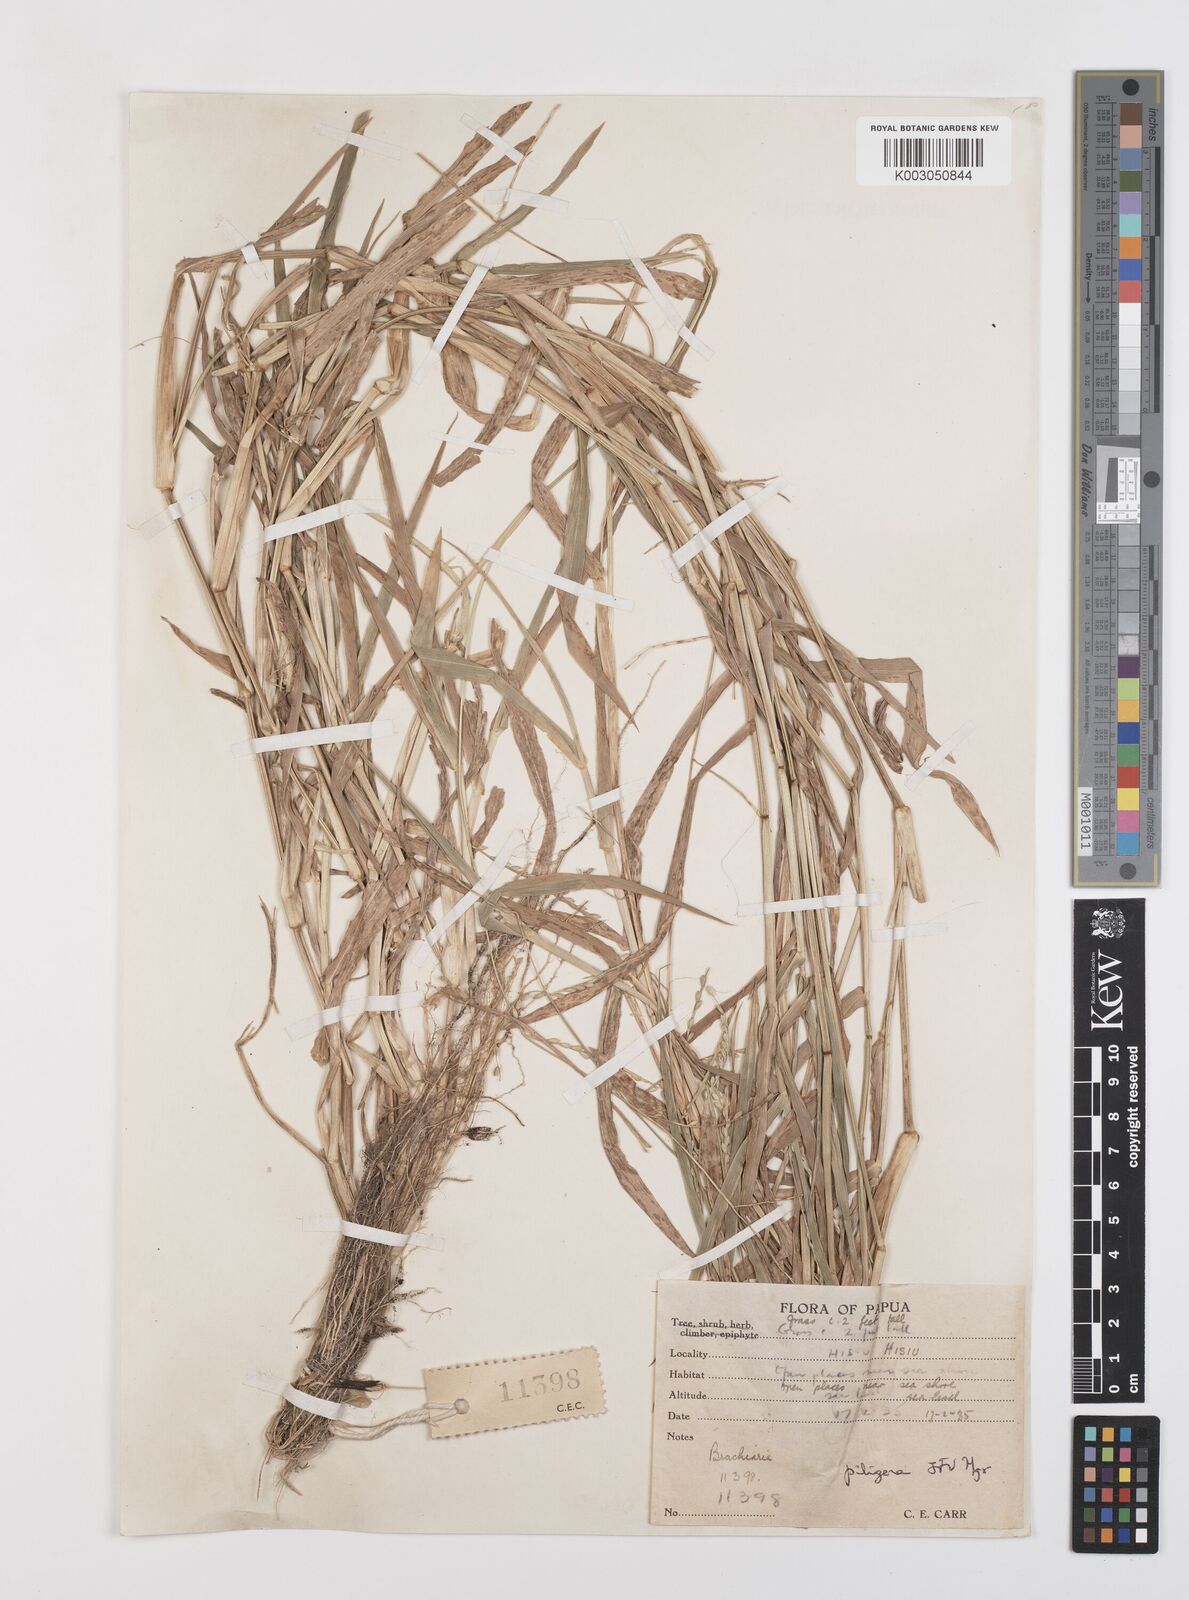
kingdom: Plantae
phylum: Tracheophyta
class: Liliopsida
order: Poales
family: Poaceae
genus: Urochloa
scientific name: Urochloa piligera
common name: Wattle signalgrass
